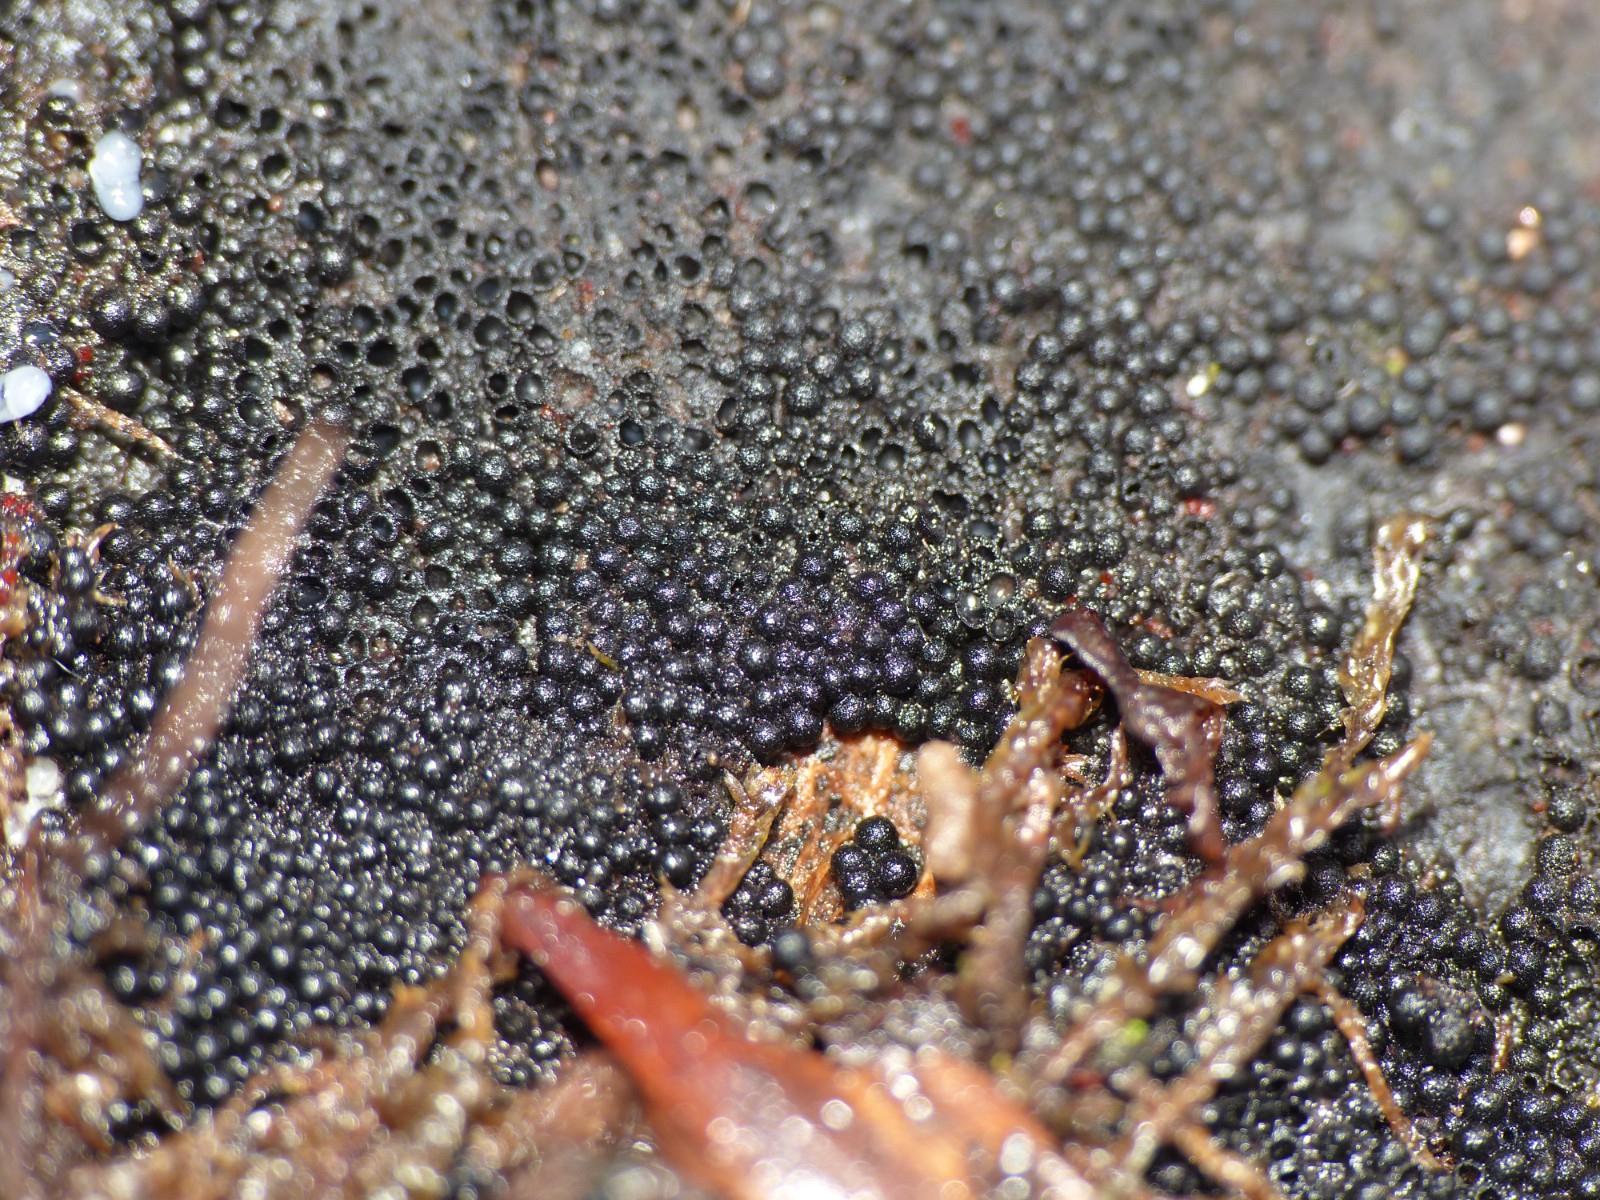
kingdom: Fungi
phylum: Ascomycota
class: Sordariomycetes
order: Sordariales
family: Helminthosphaeriaceae
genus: Ruzenia
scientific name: Ruzenia spermoides
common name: glat børstekerne
